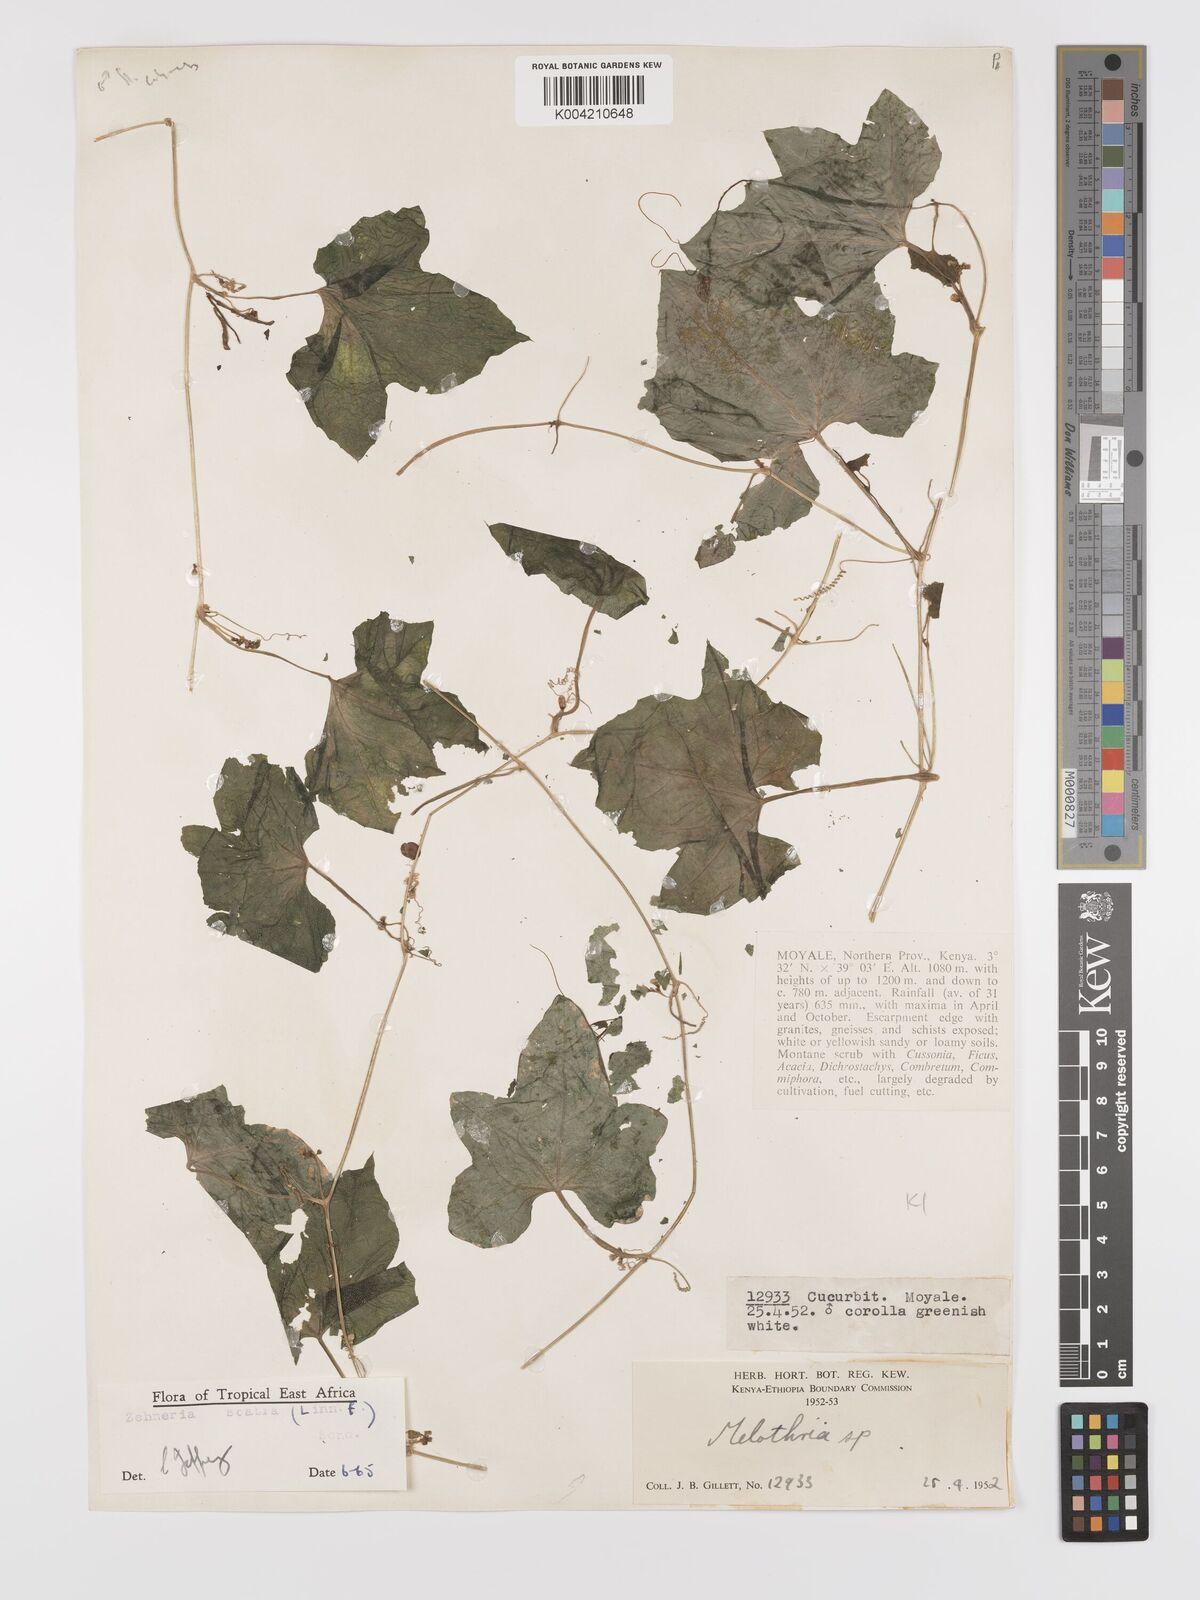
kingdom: Plantae
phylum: Tracheophyta
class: Magnoliopsida
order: Cucurbitales
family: Cucurbitaceae
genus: Zehneria
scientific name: Zehneria
